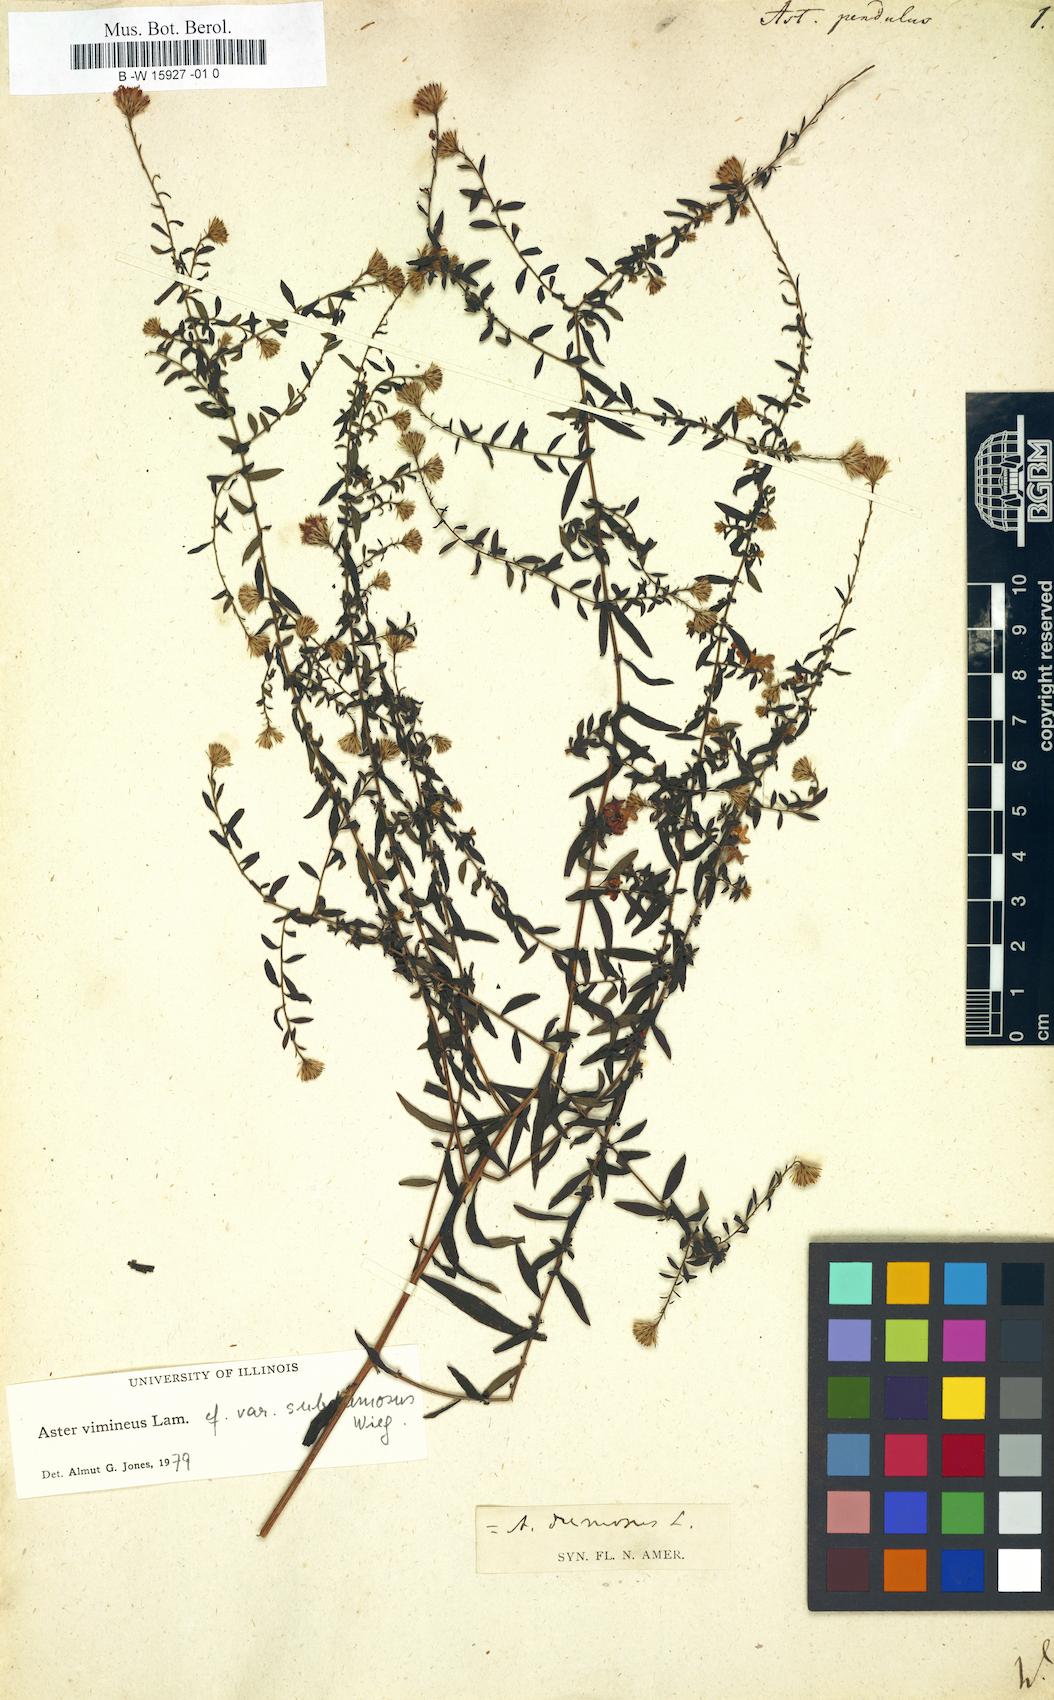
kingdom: Plantae
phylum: Tracheophyta
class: Magnoliopsida
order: Asterales
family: Asteraceae
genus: Symphyotrichum
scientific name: Symphyotrichum lateriflorum
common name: Calico aster
